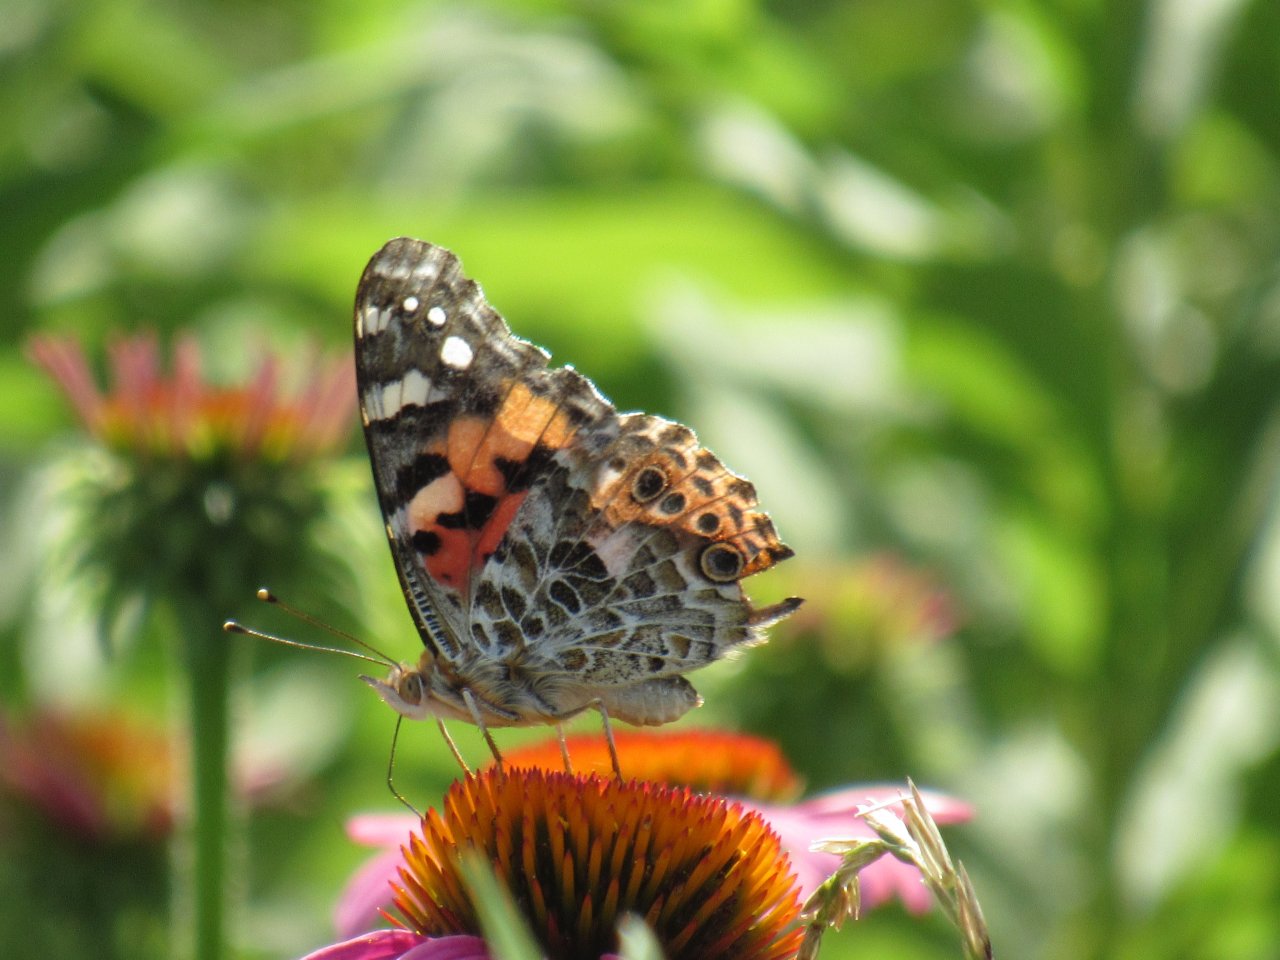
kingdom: Animalia
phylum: Arthropoda
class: Insecta
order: Lepidoptera
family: Nymphalidae
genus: Vanessa
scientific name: Vanessa cardui
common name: Painted Lady
